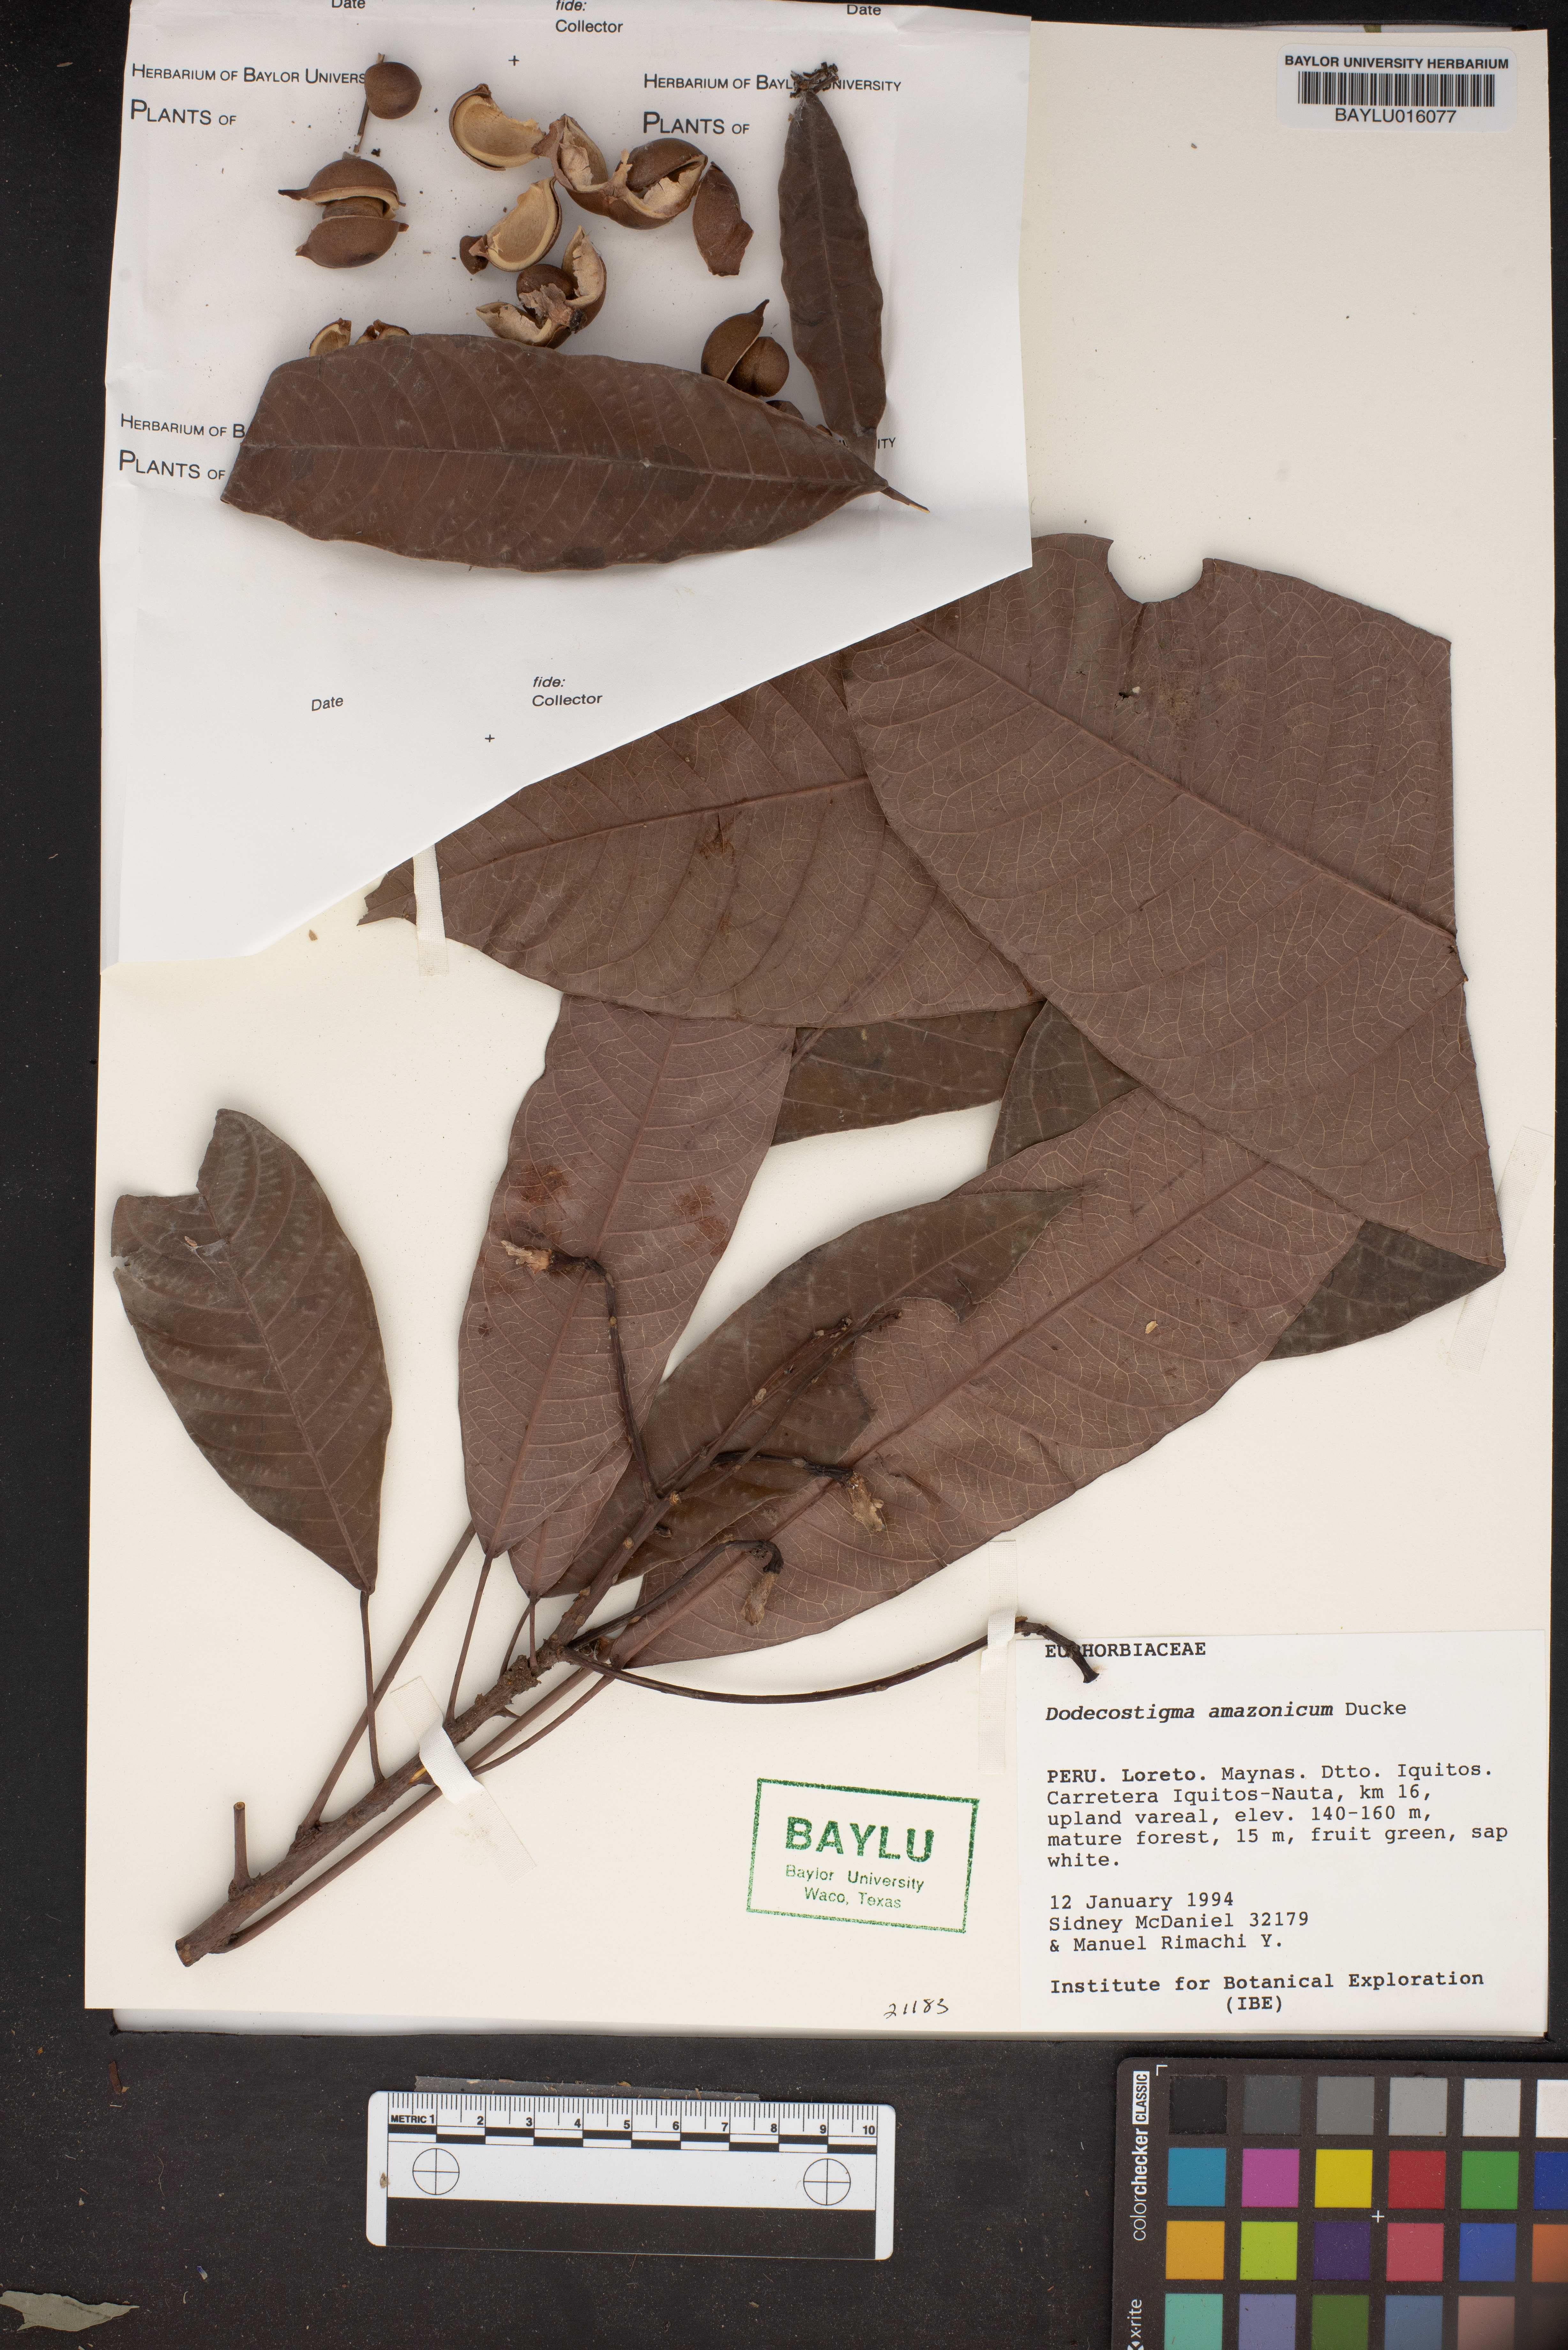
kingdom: Plantae
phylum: Tracheophyta
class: Magnoliopsida
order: Malpighiales
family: Euphorbiaceae
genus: Dodecastigma
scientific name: Dodecastigma amazonicum
